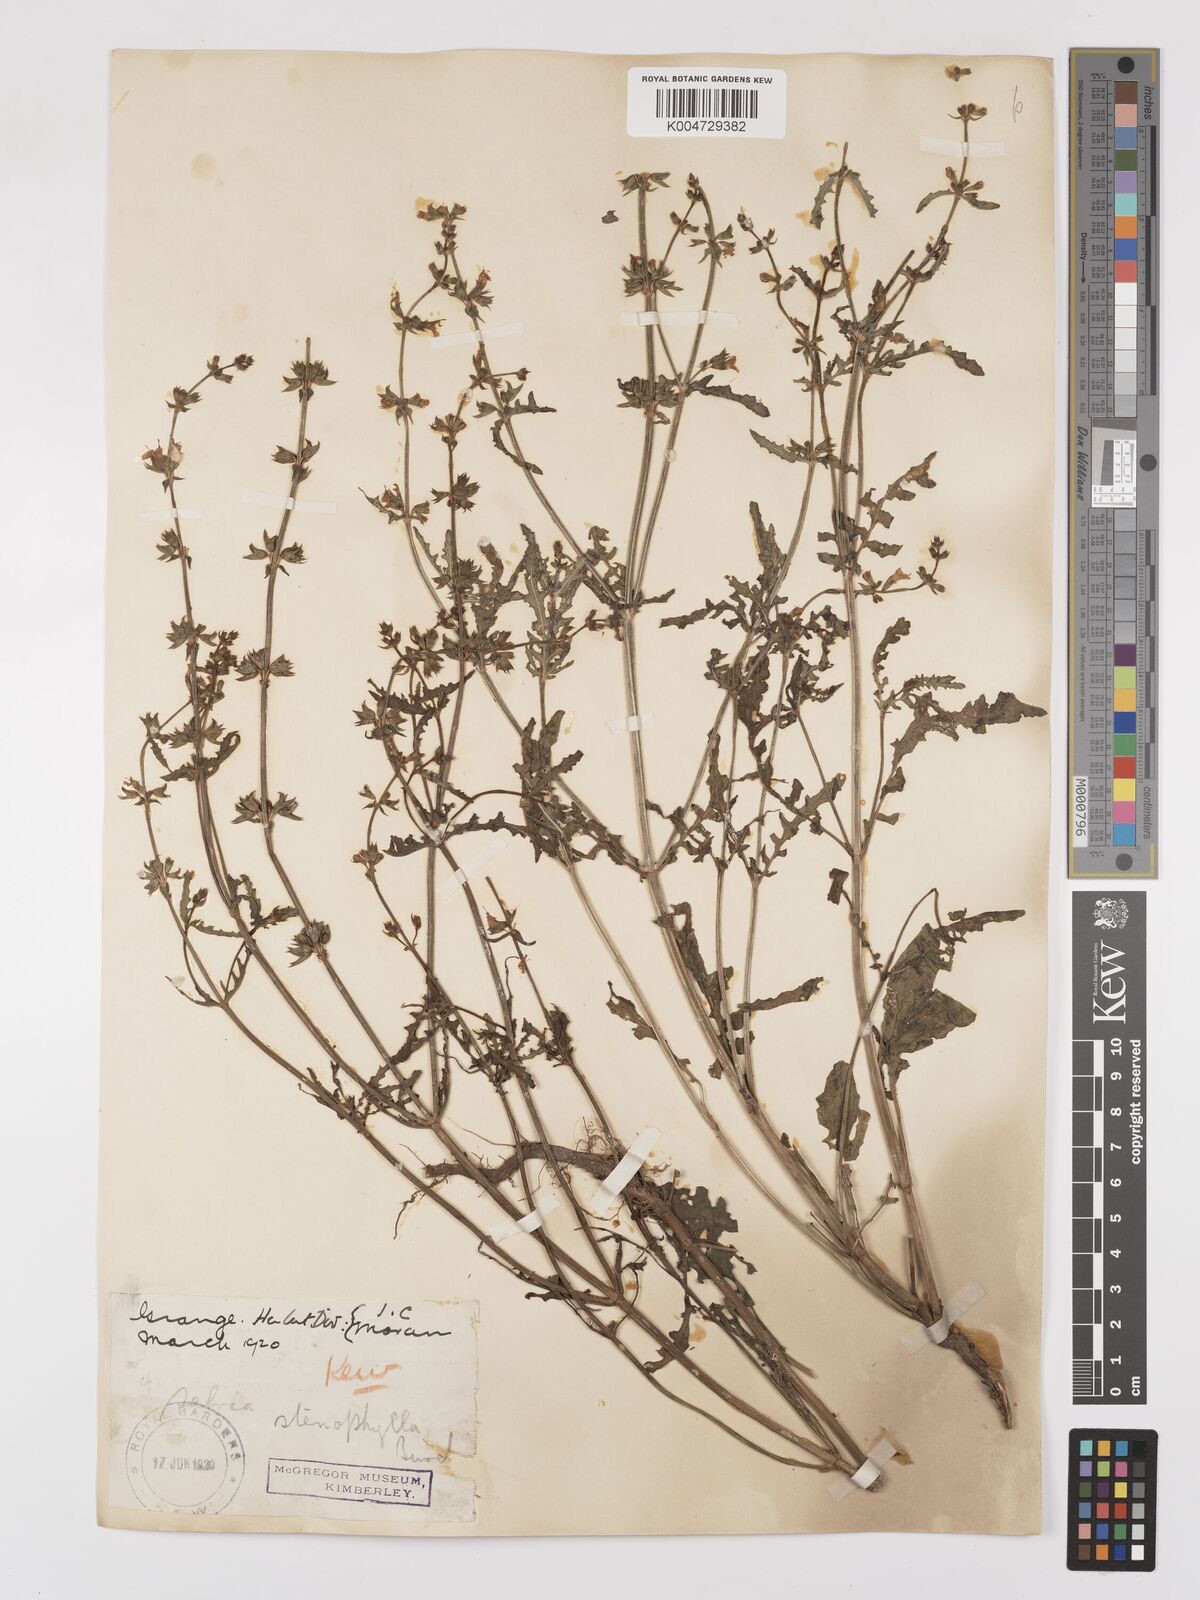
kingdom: Plantae
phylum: Tracheophyta
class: Magnoliopsida
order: Lamiales
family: Lamiaceae
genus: Salvia
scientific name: Salvia stenophylla
